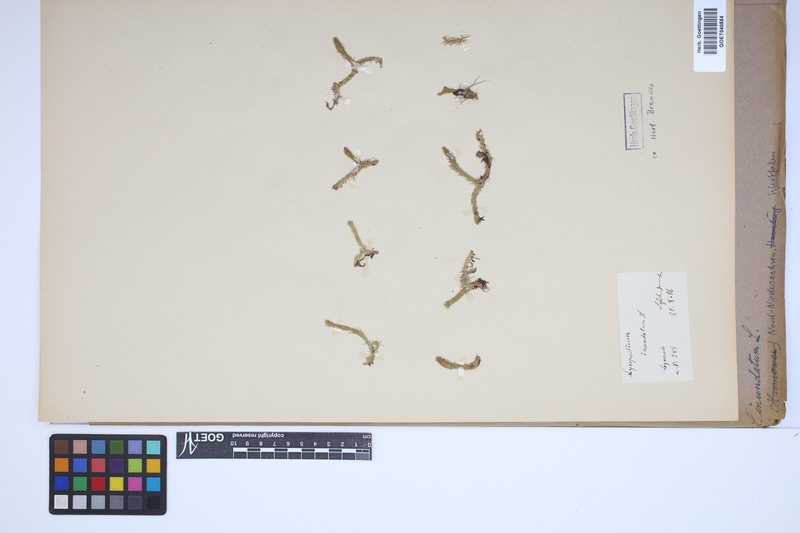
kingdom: Plantae
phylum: Tracheophyta
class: Lycopodiopsida
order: Lycopodiales
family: Lycopodiaceae
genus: Lycopodiella
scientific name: Lycopodiella inundata
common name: Marsh clubmoss
